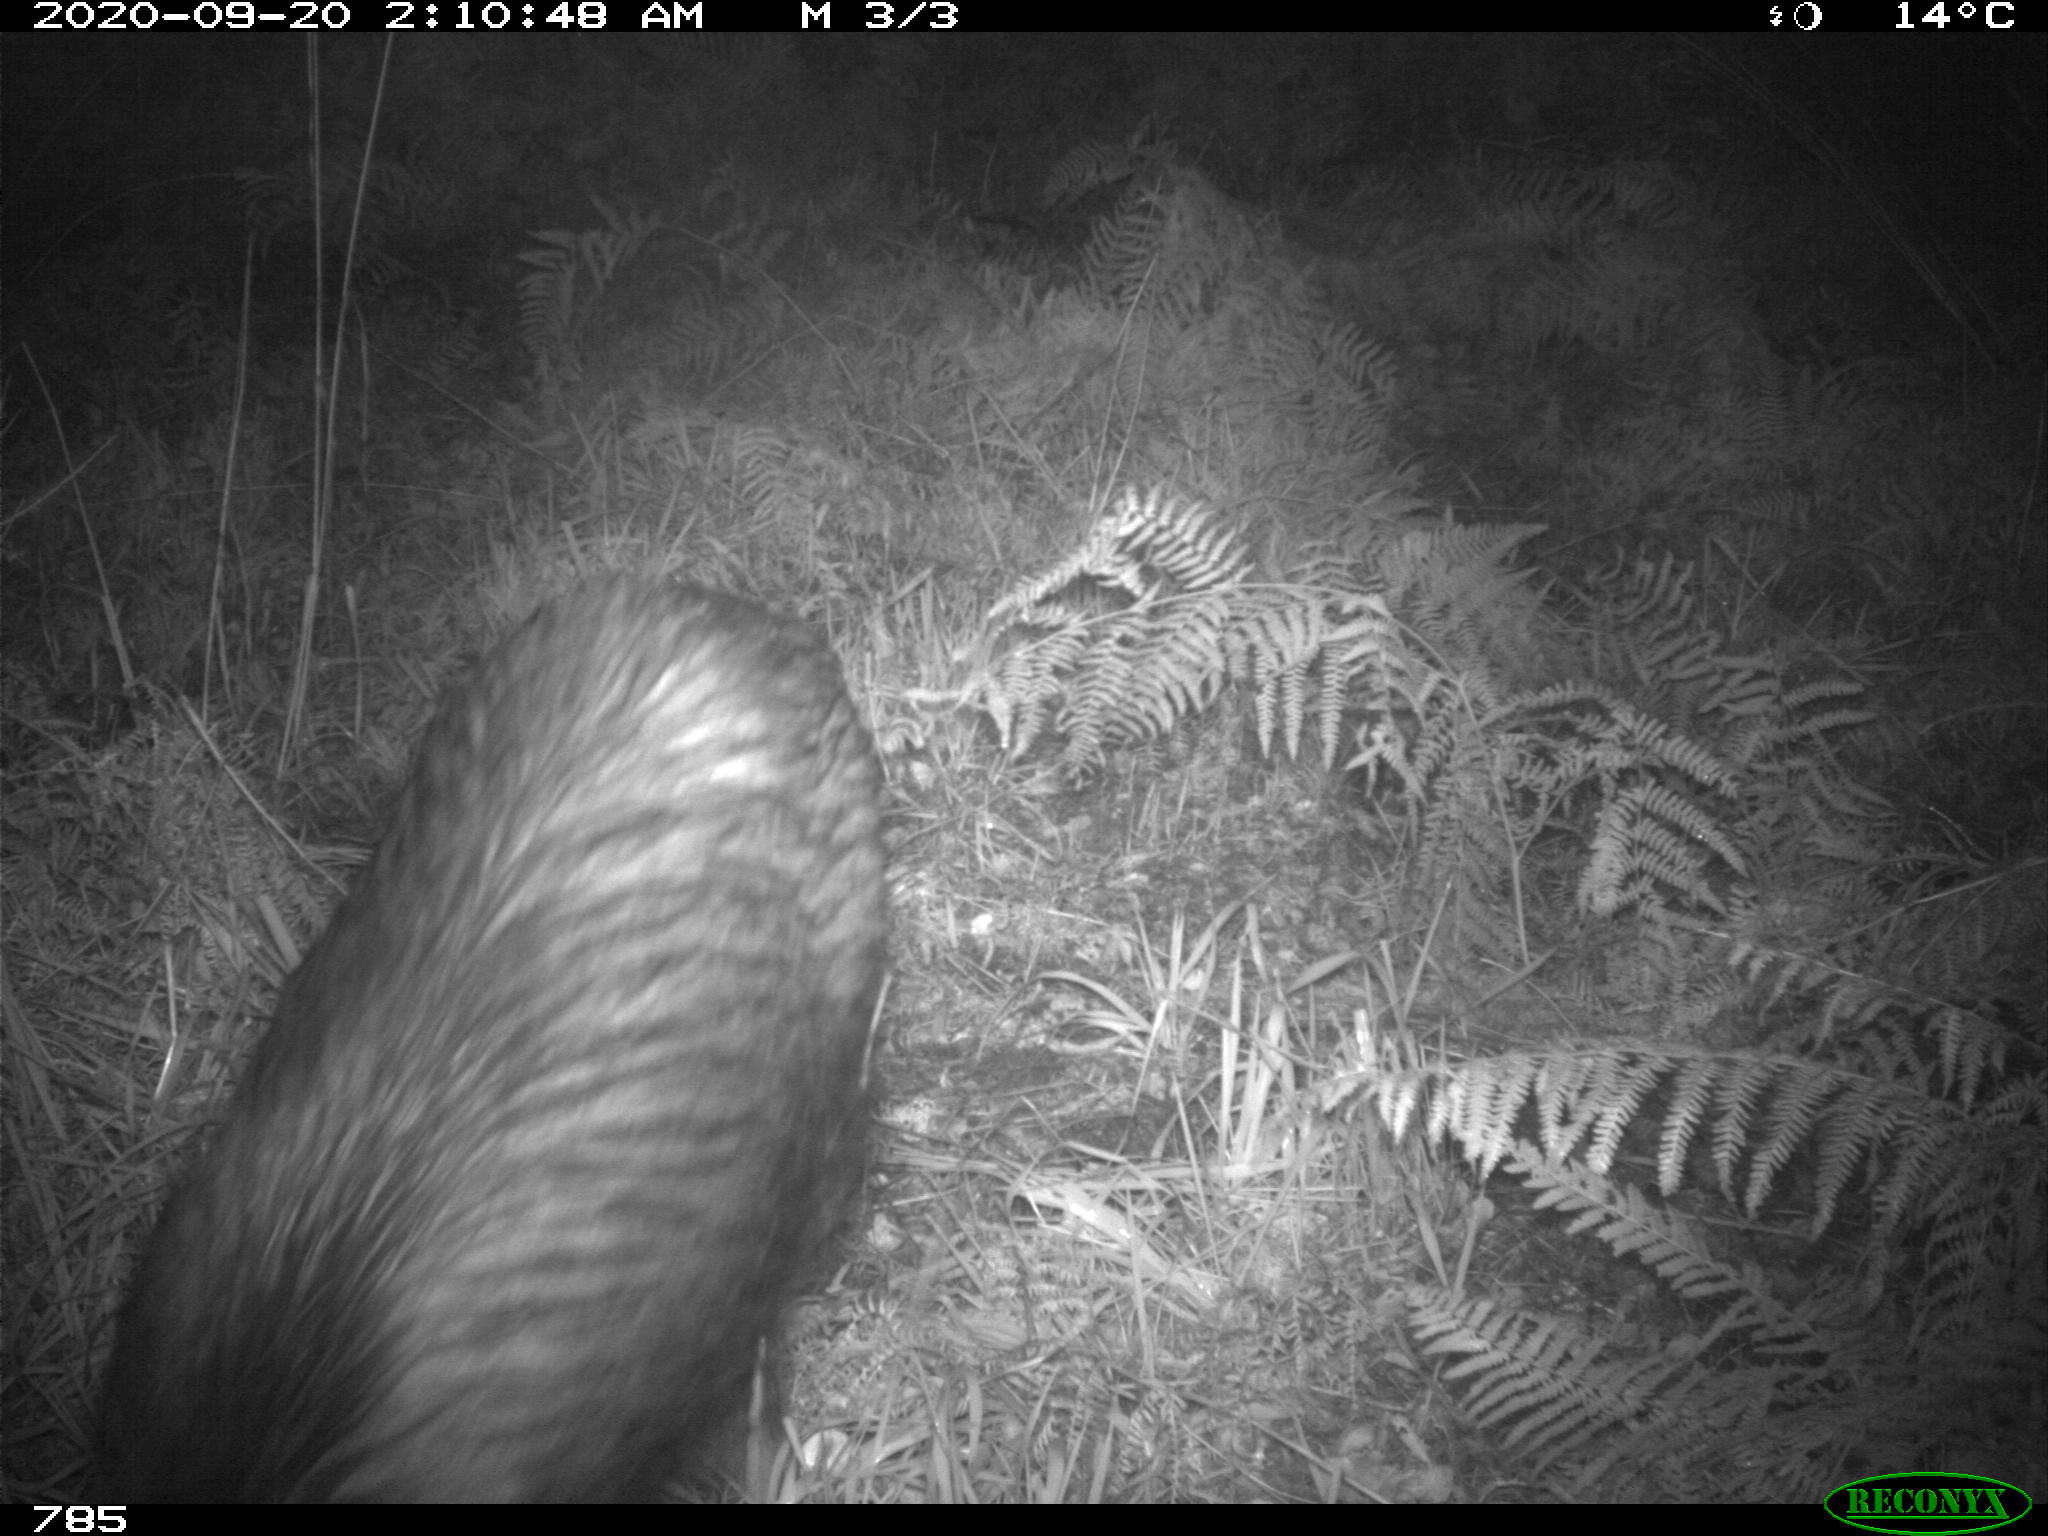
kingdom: Animalia
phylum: Chordata
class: Mammalia
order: Artiodactyla
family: Suidae
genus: Sus
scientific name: Sus scrofa
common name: Wild boar
